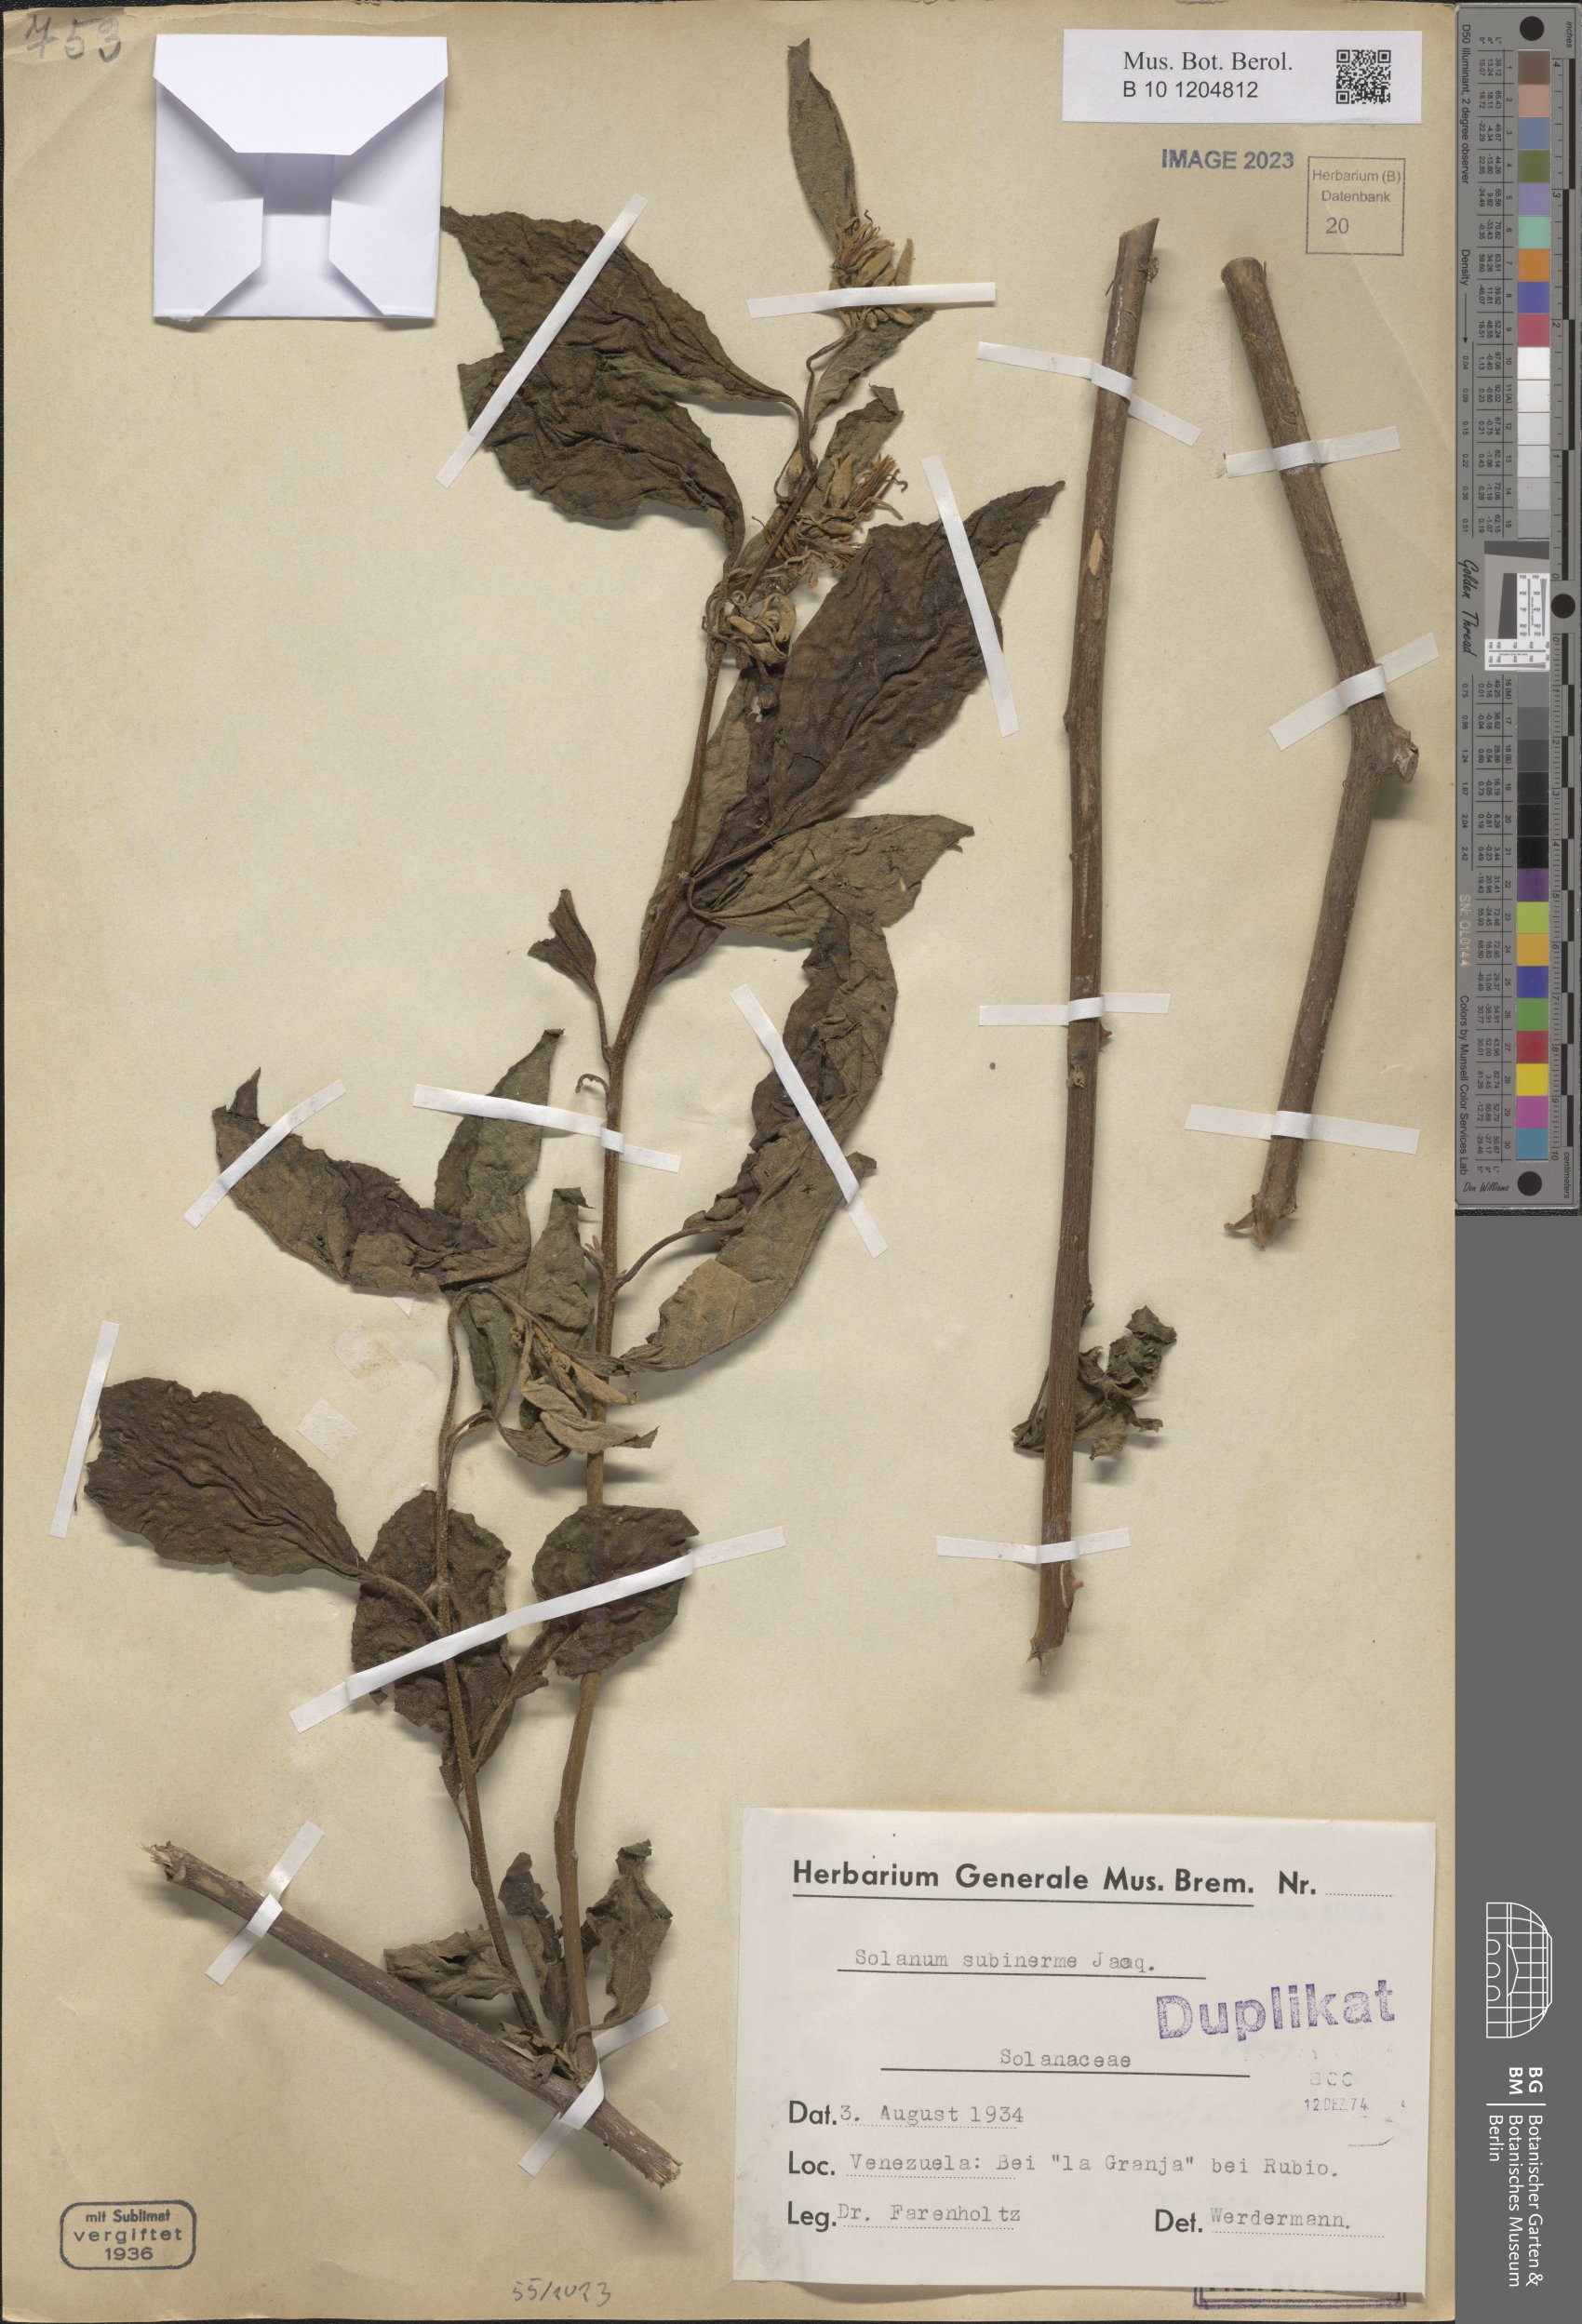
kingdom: Plantae
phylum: Tracheophyta
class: Magnoliopsida
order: Solanales
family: Solanaceae
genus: Solanum
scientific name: Solanum subinerme
